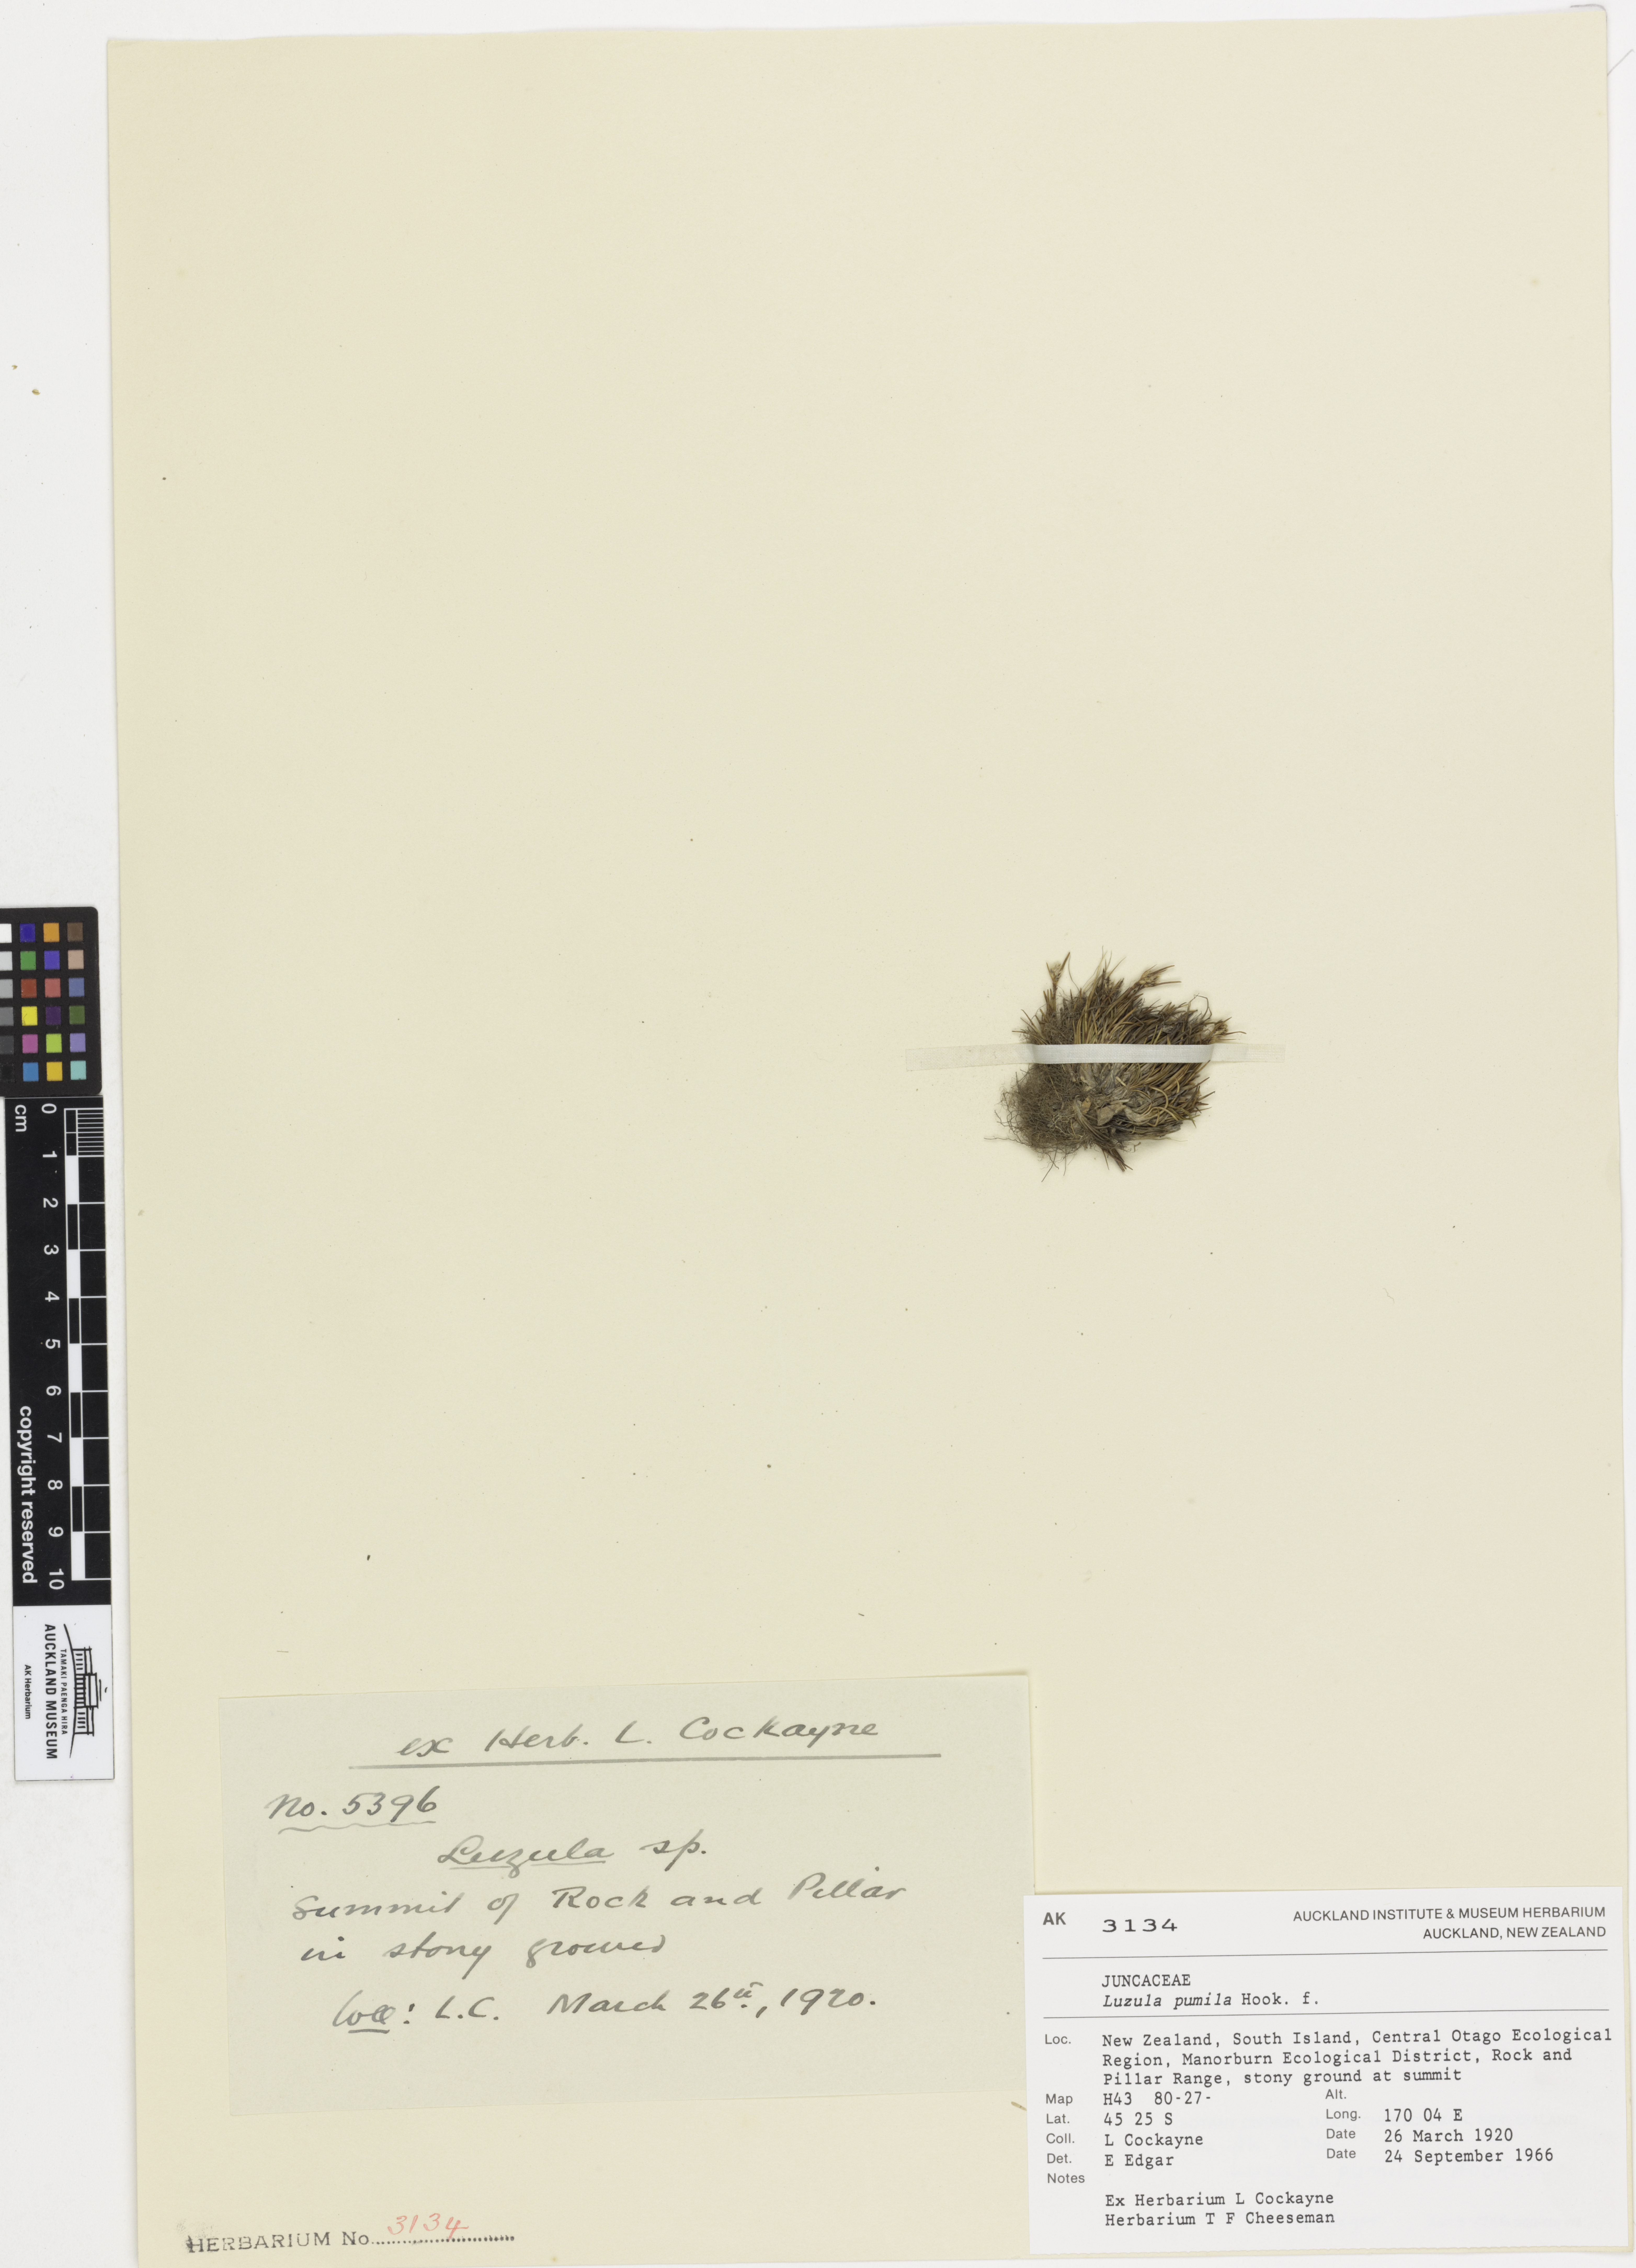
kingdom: Plantae
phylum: Tracheophyta
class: Liliopsida
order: Poales
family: Juncaceae
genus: Juncus
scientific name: Juncus novae-zelandiae
